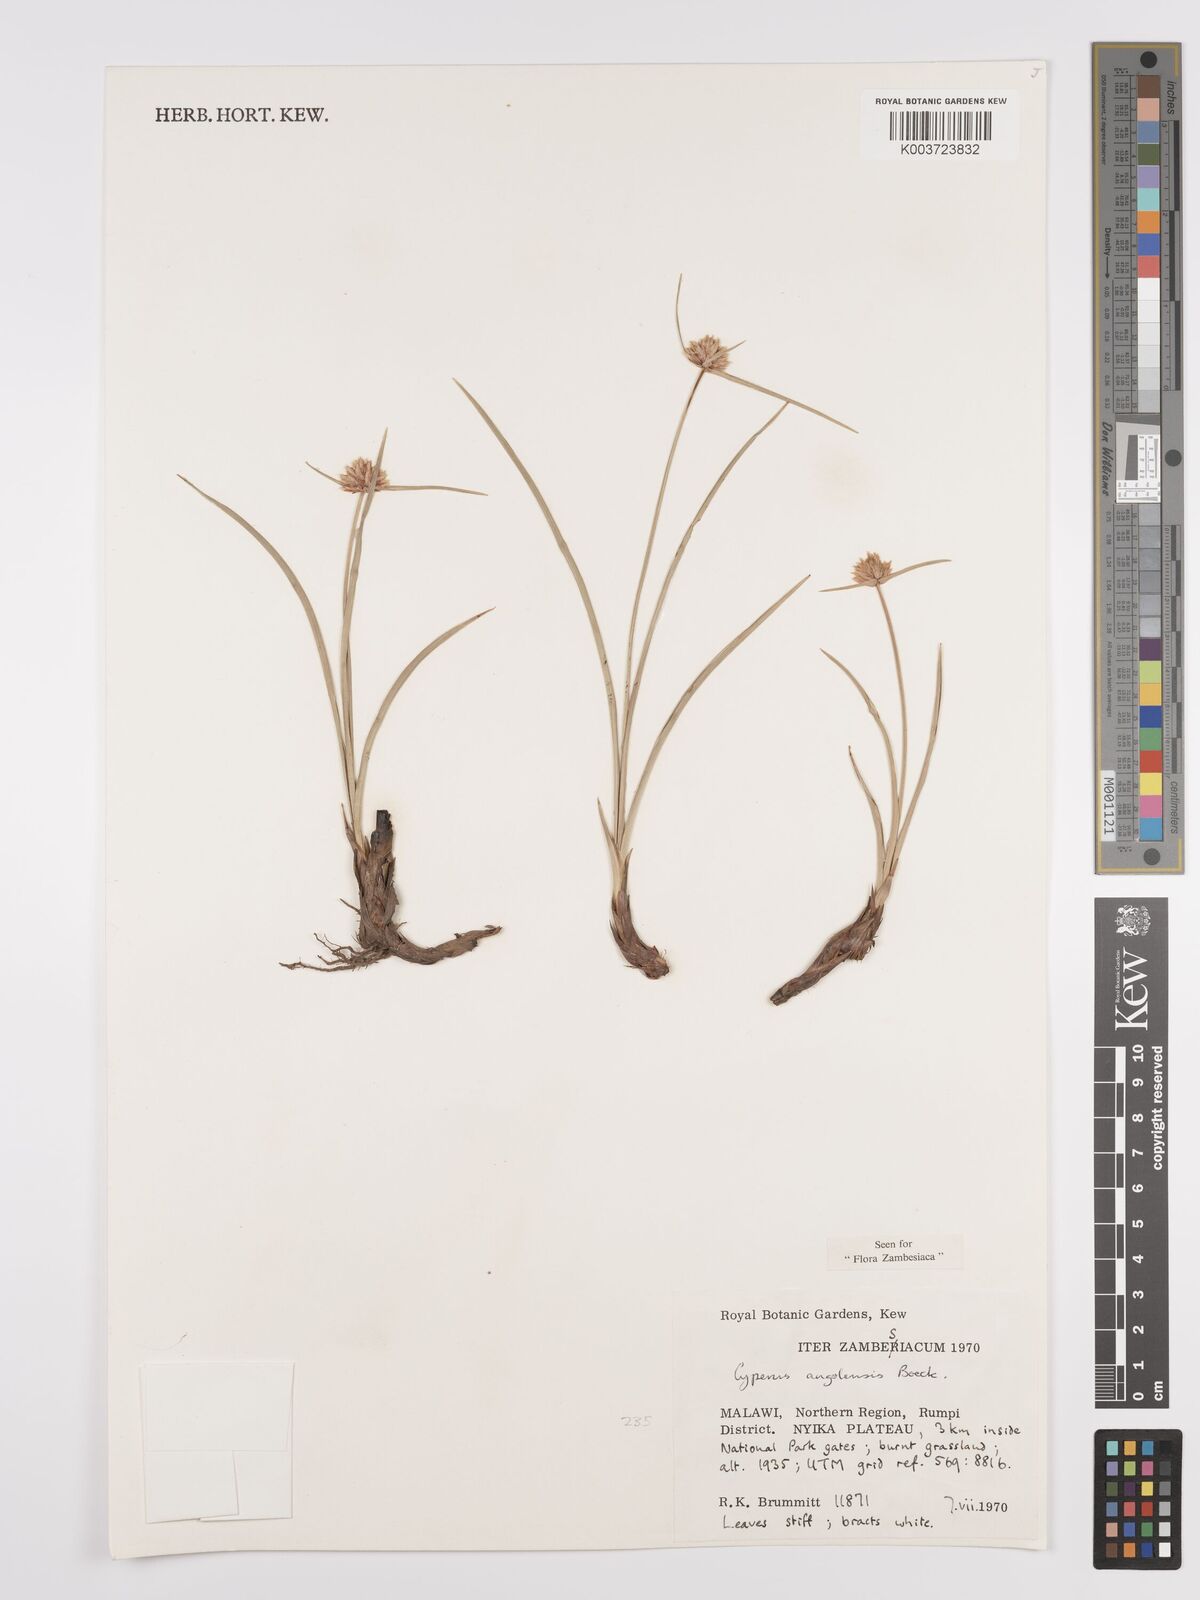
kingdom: Plantae
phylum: Tracheophyta
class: Liliopsida
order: Poales
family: Cyperaceae
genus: Cyperus
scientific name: Cyperus angolensis
